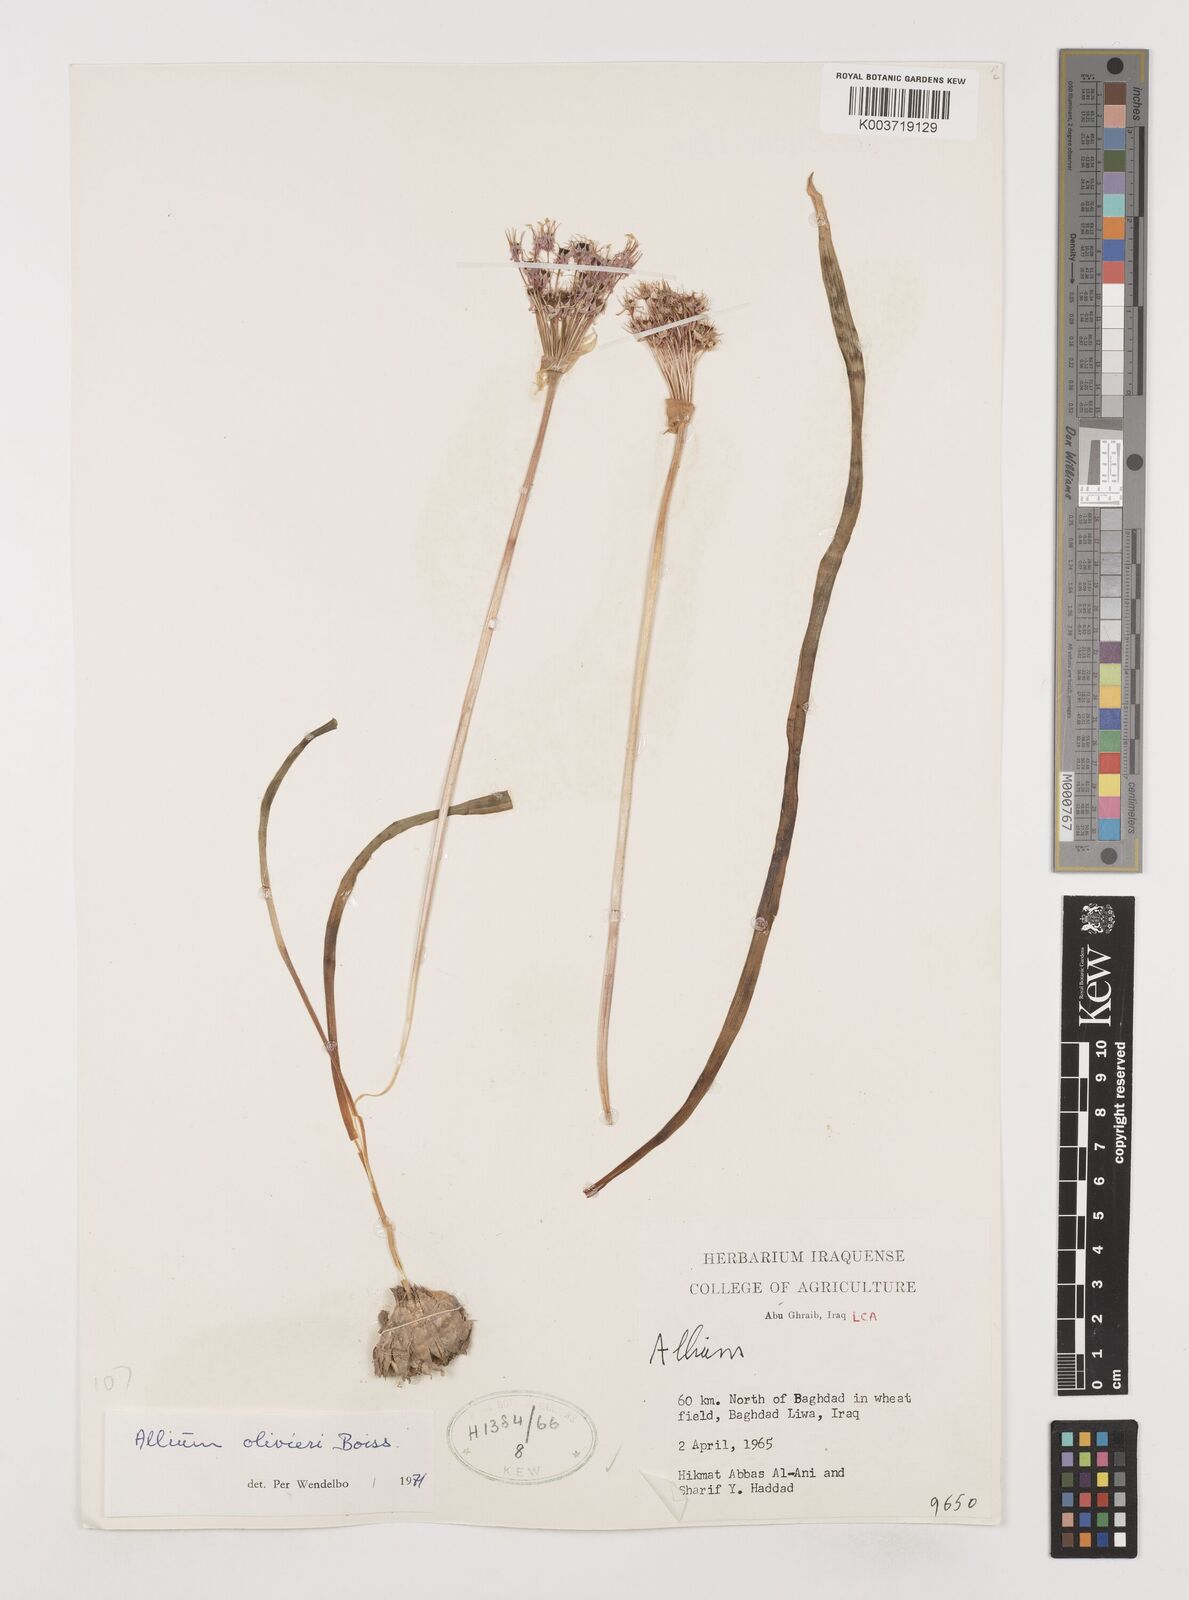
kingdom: Plantae
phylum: Tracheophyta
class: Liliopsida
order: Asparagales
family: Amaryllidaceae
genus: Allium
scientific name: Allium olivieri
